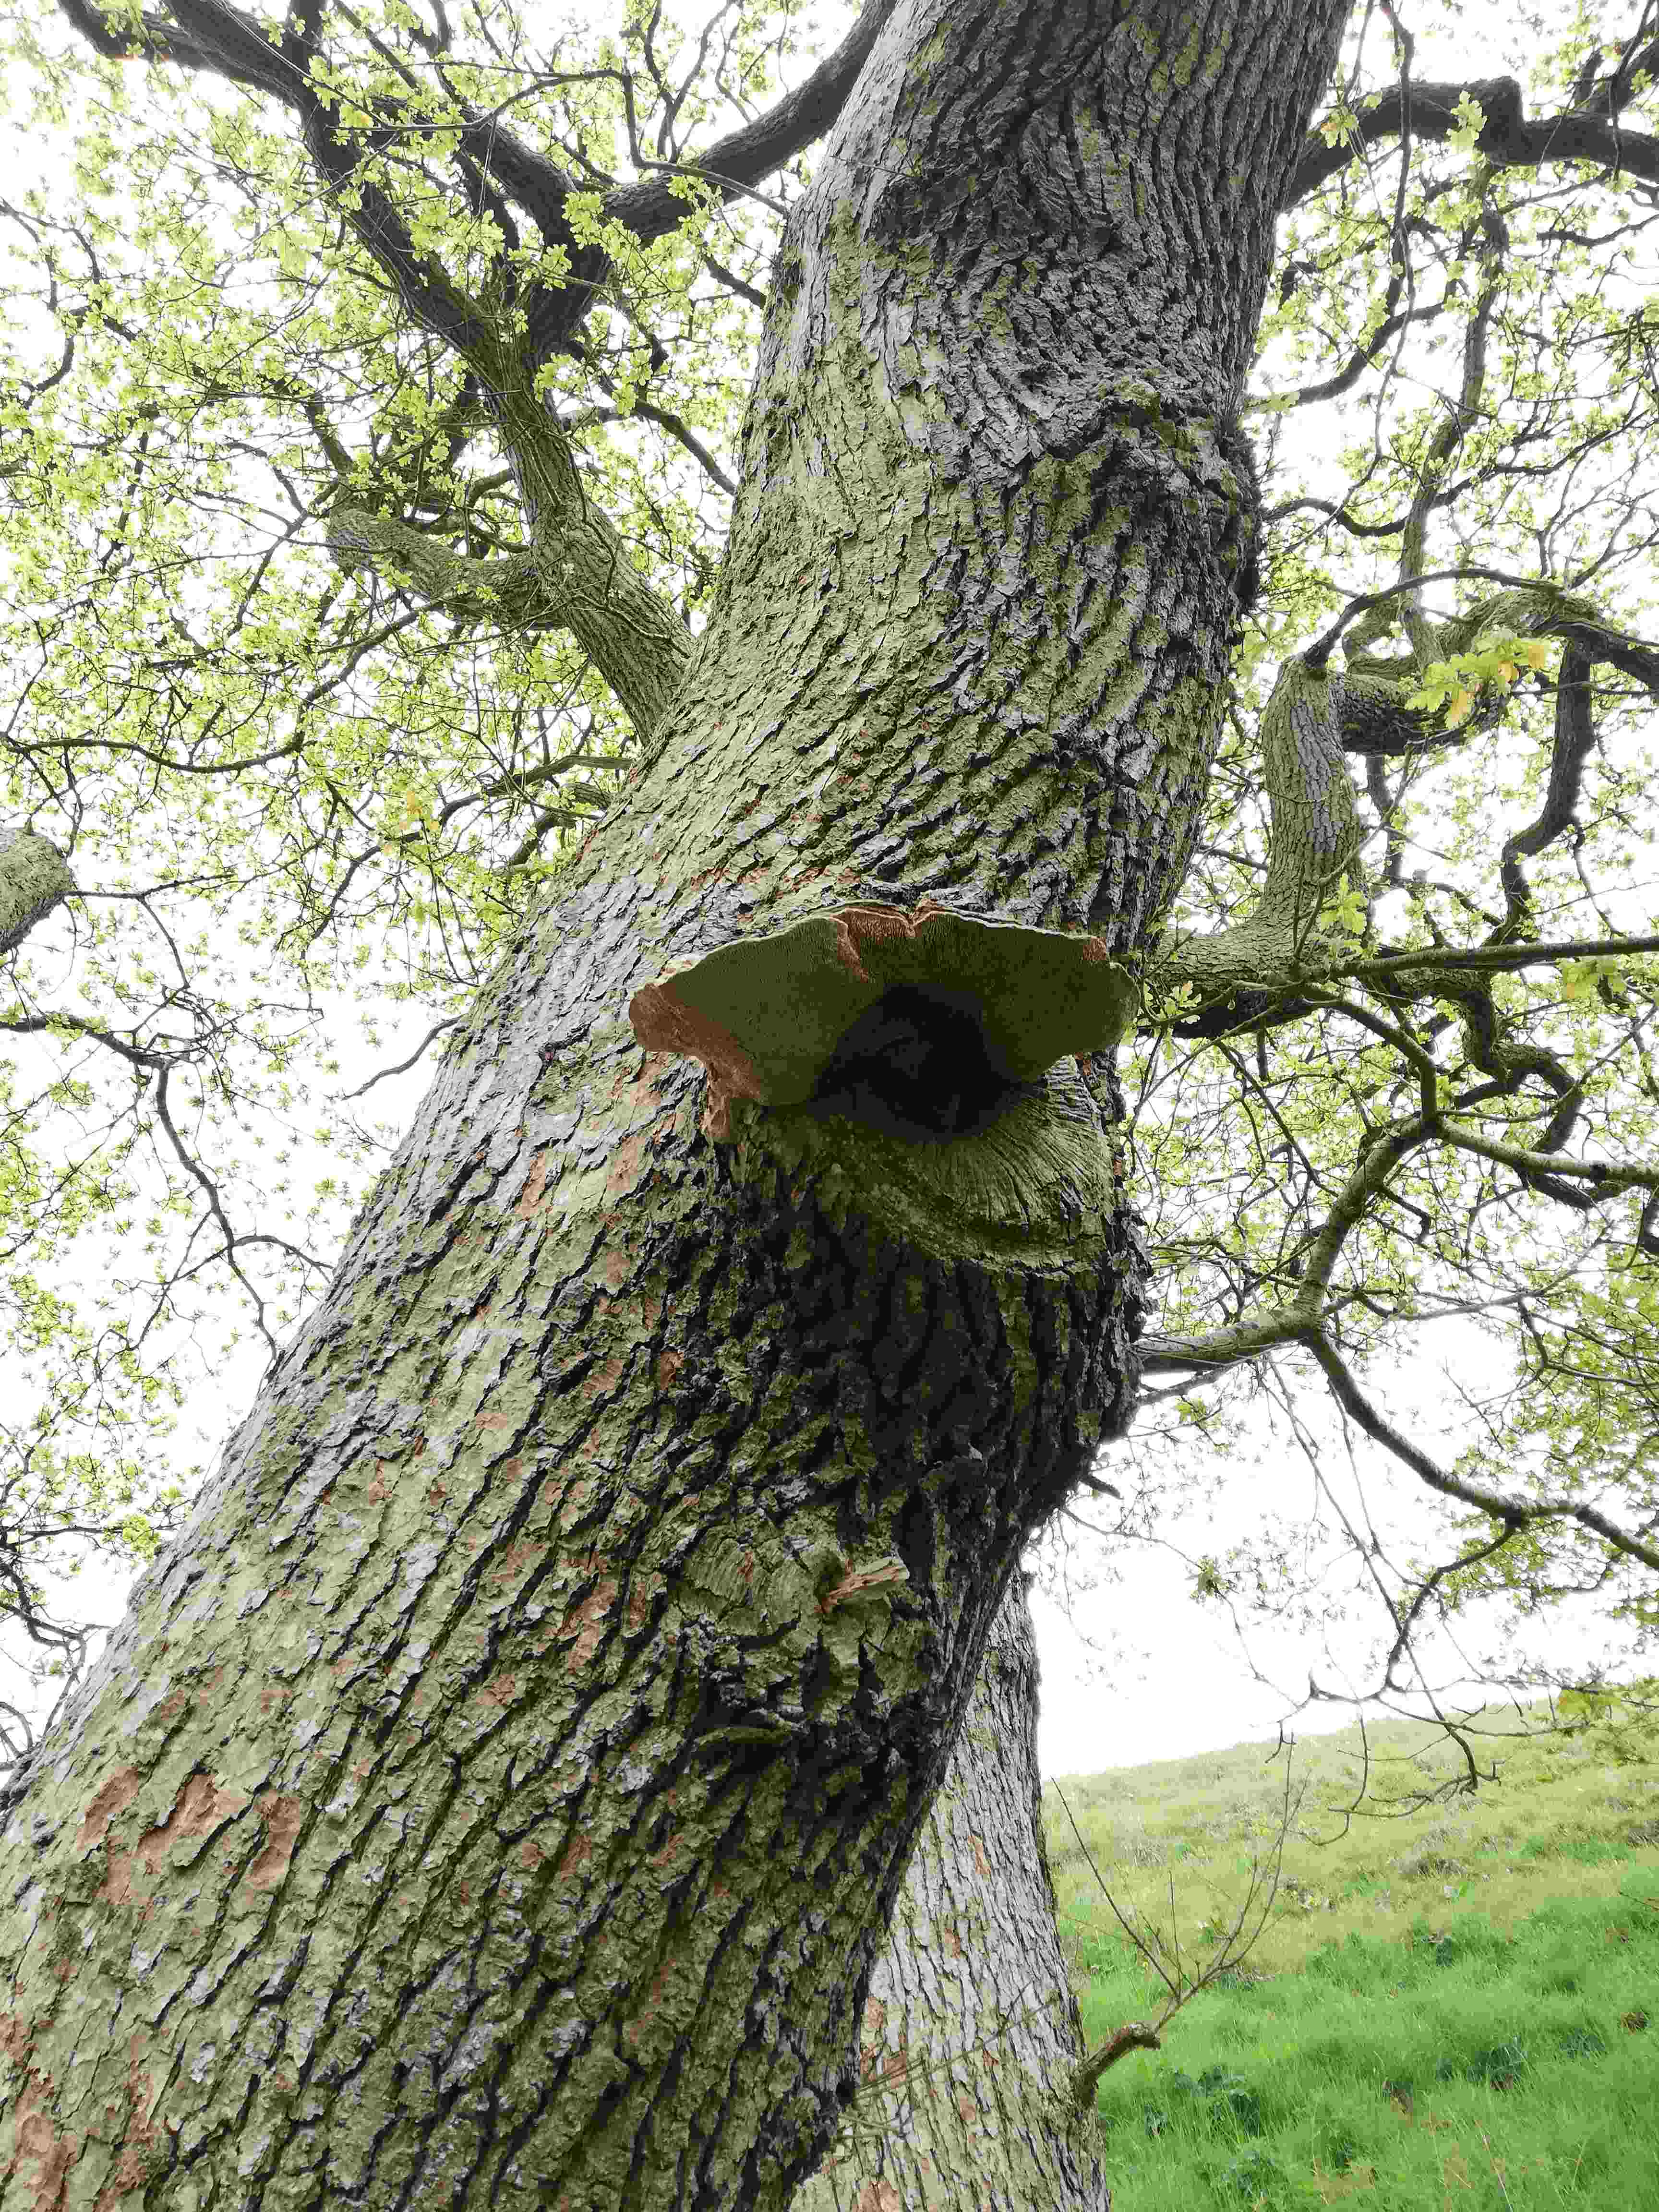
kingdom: Fungi
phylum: Basidiomycota
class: Agaricomycetes
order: Polyporales
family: Fomitopsidaceae
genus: Daedalea
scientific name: Daedalea quercina
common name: ege-labyrintsvamp
